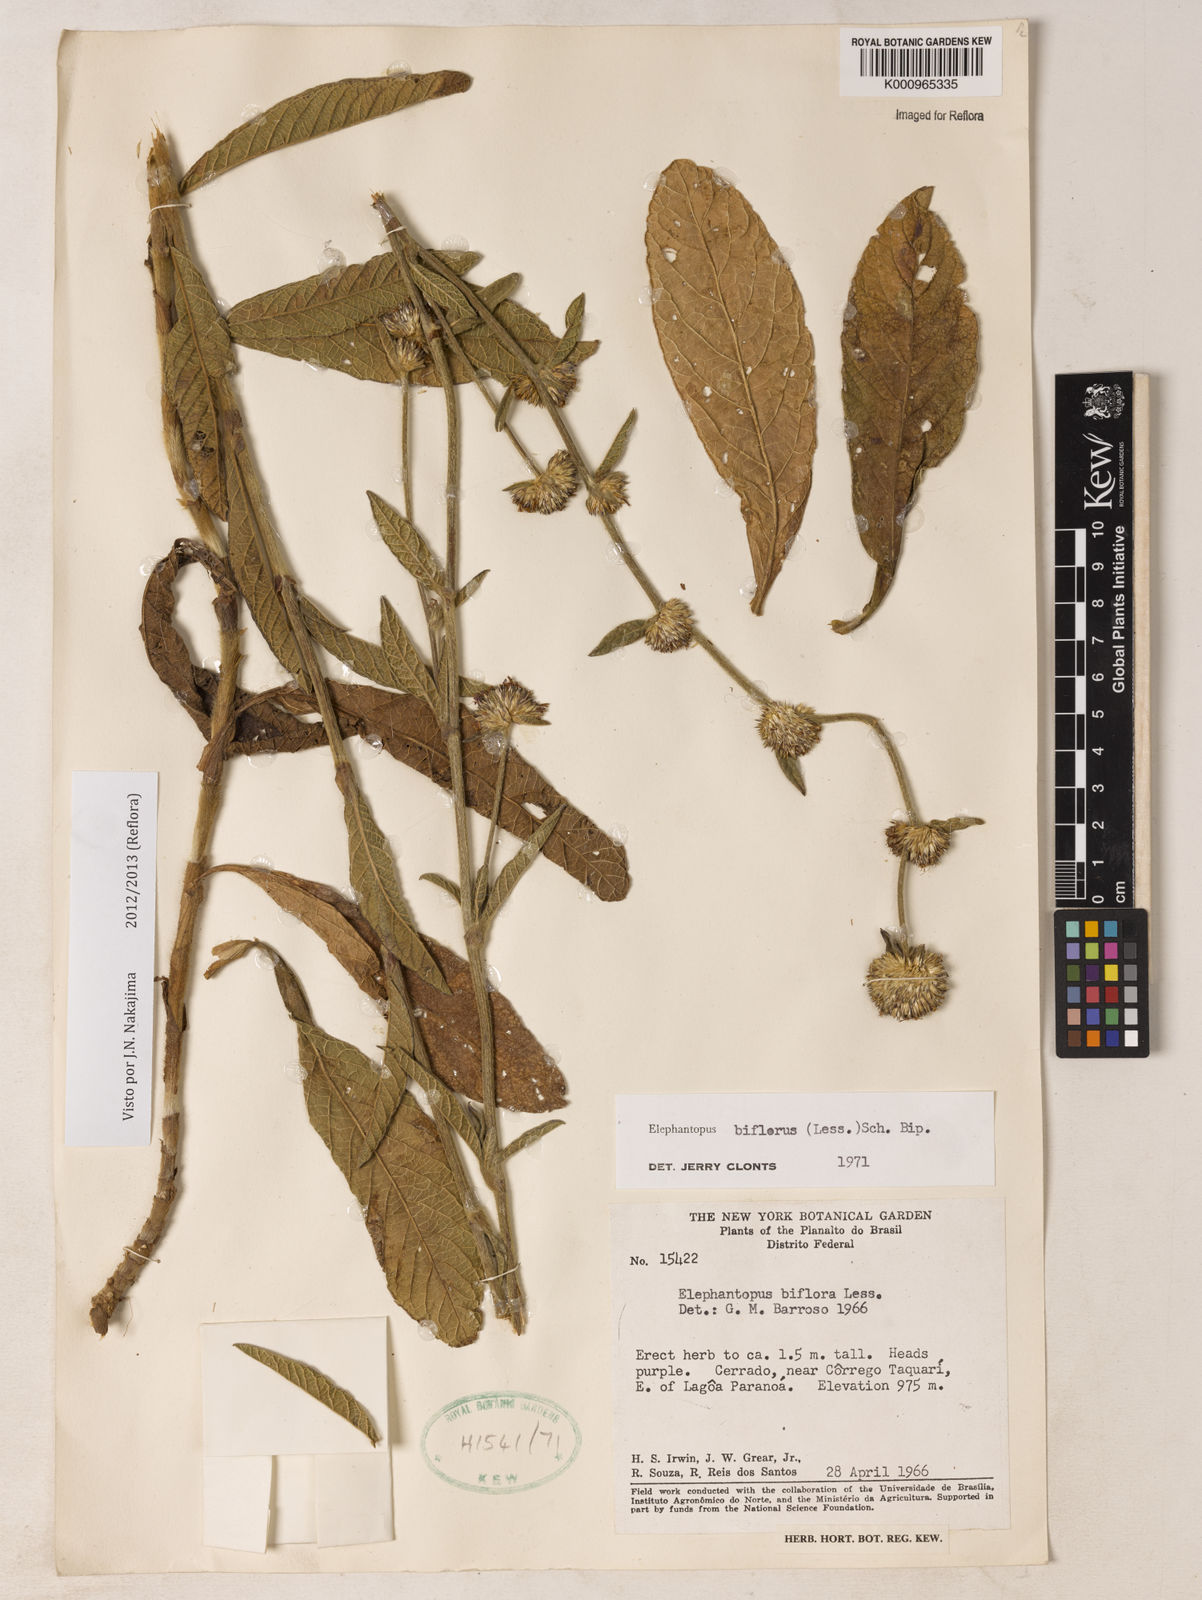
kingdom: Plantae
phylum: Tracheophyta
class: Magnoliopsida
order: Asterales
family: Asteraceae
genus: Elephantopus
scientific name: Elephantopus biflorus
